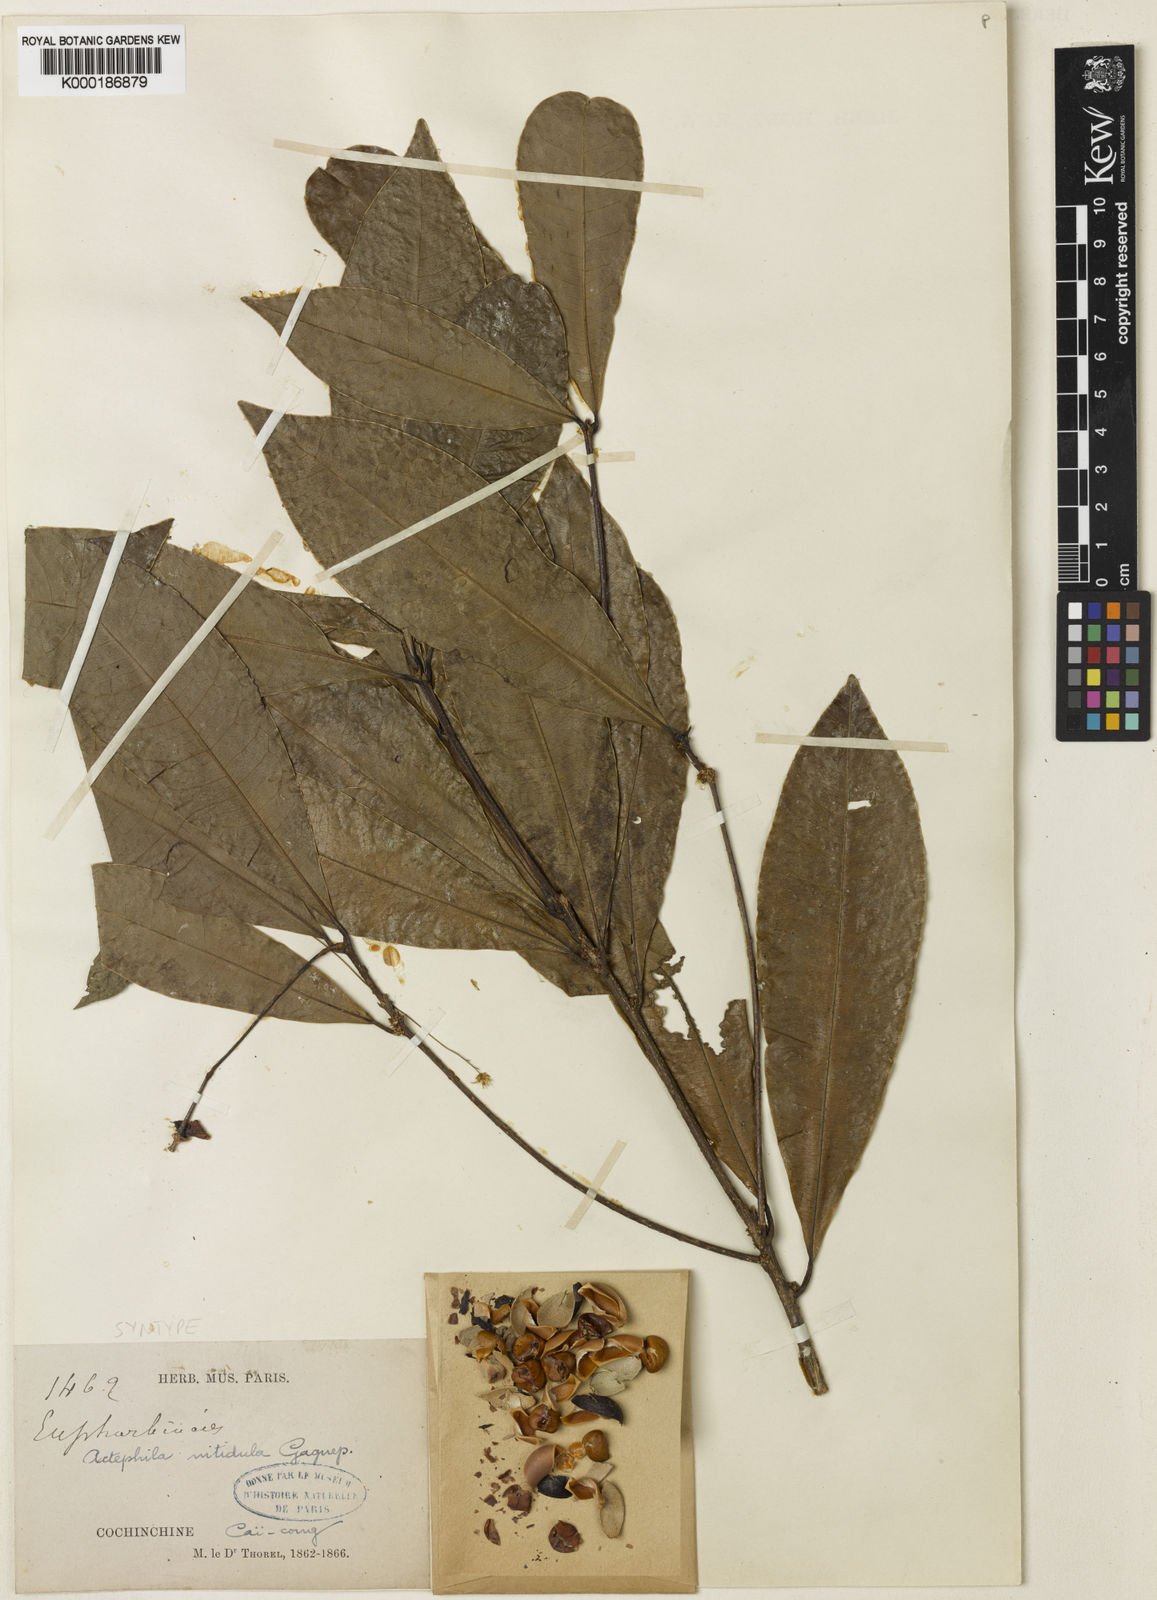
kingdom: Plantae
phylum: Tracheophyta
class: Magnoliopsida
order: Malpighiales
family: Phyllanthaceae
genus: Actephila
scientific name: Actephila nitidula
